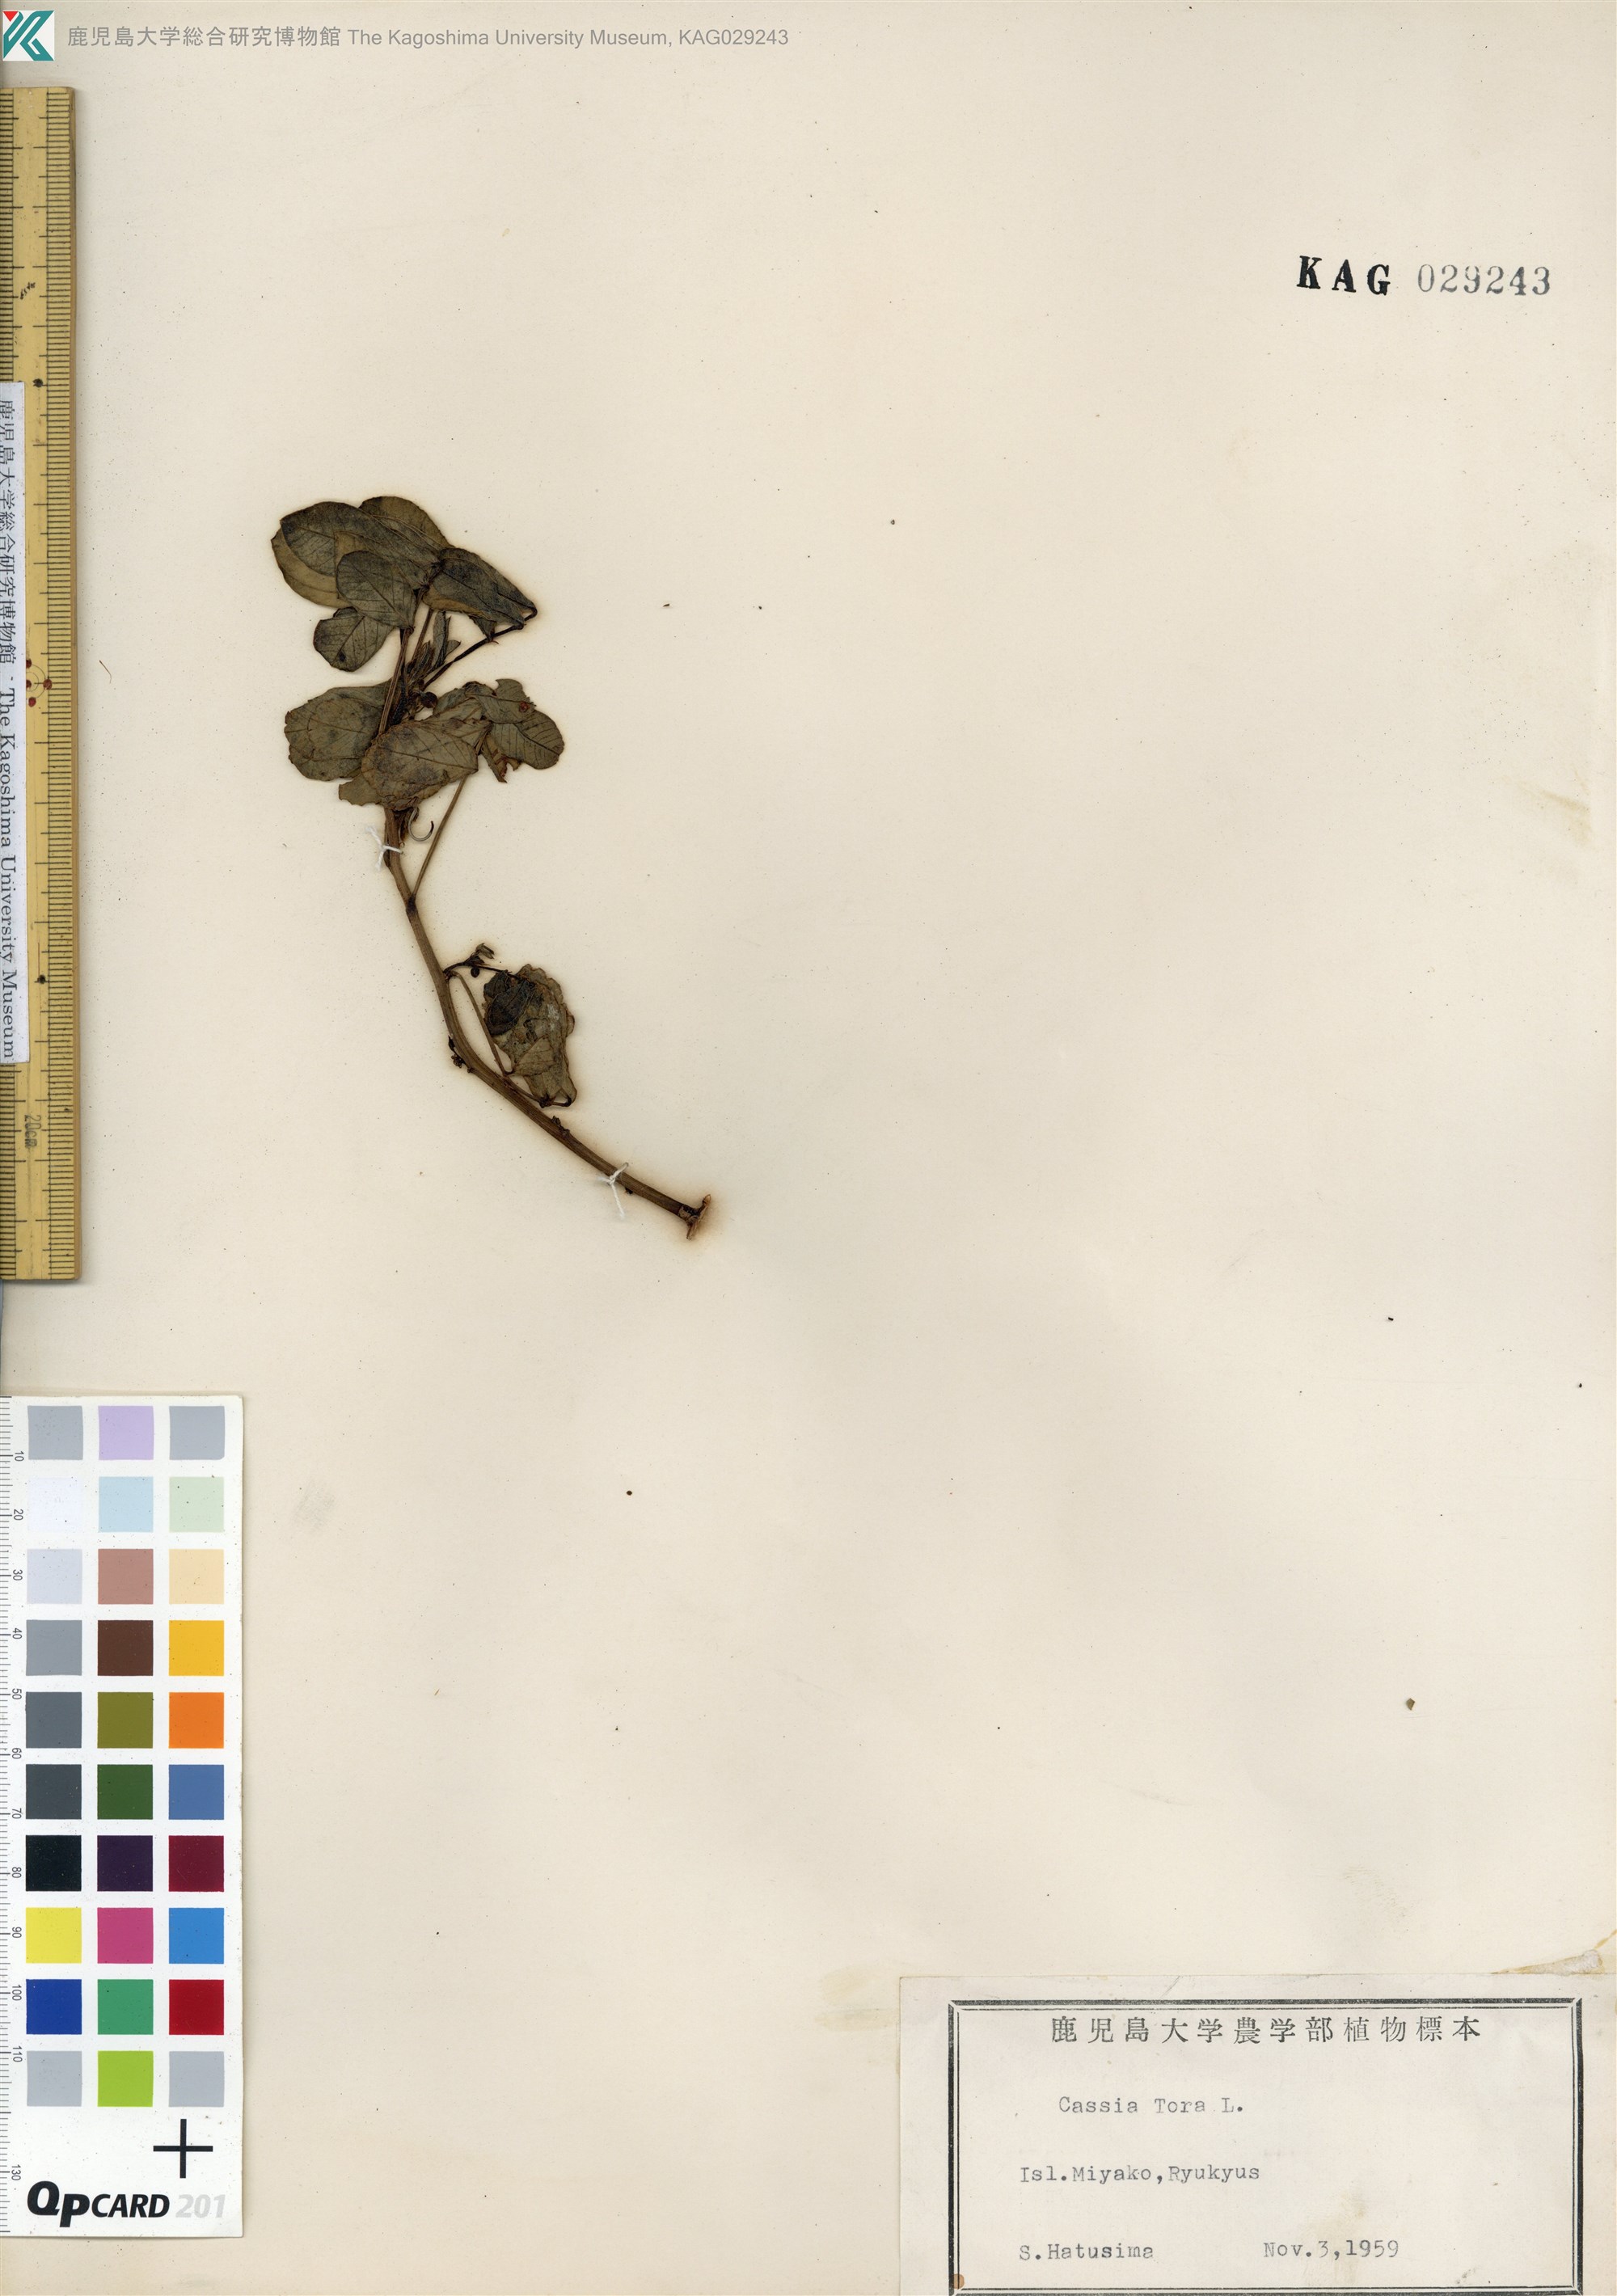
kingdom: Plantae
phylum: Tracheophyta
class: Magnoliopsida
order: Fabales
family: Fabaceae
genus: Senna
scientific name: Senna tora
